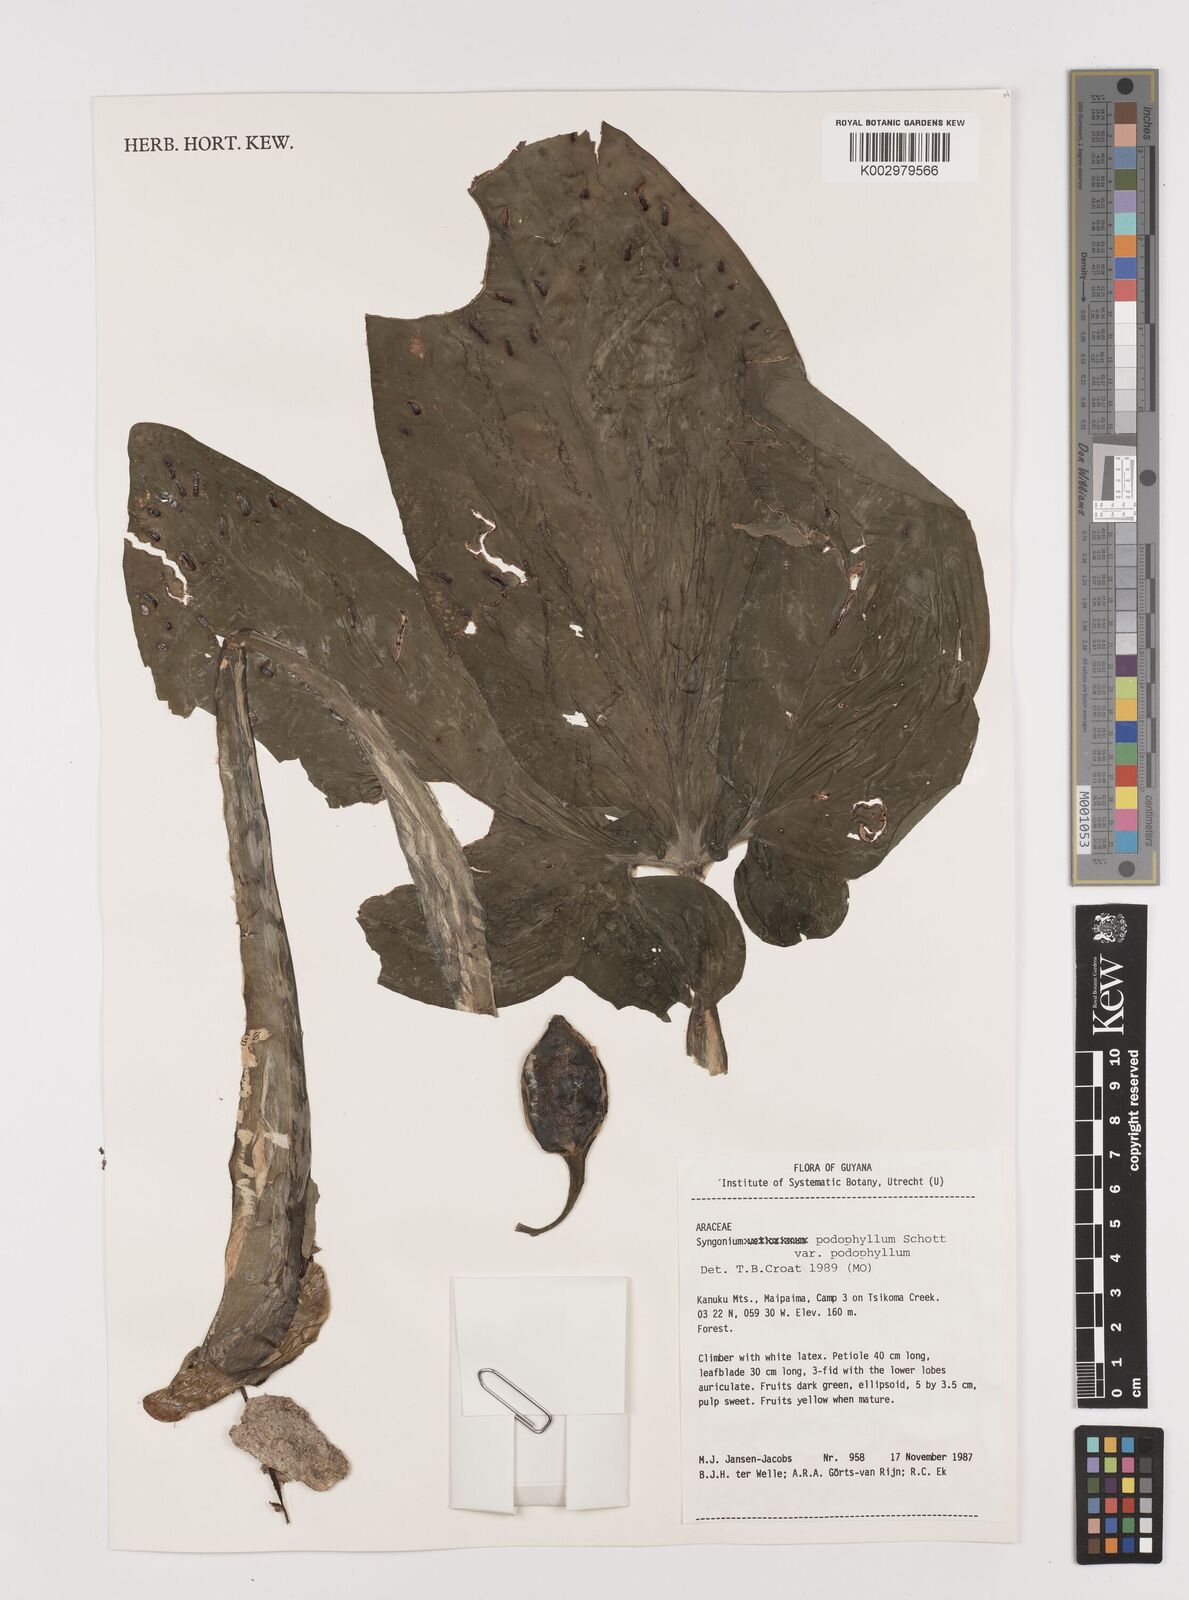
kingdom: Plantae
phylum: Tracheophyta
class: Liliopsida
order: Alismatales
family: Araceae
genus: Syngonium
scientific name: Syngonium podophyllum
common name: American evergreen
